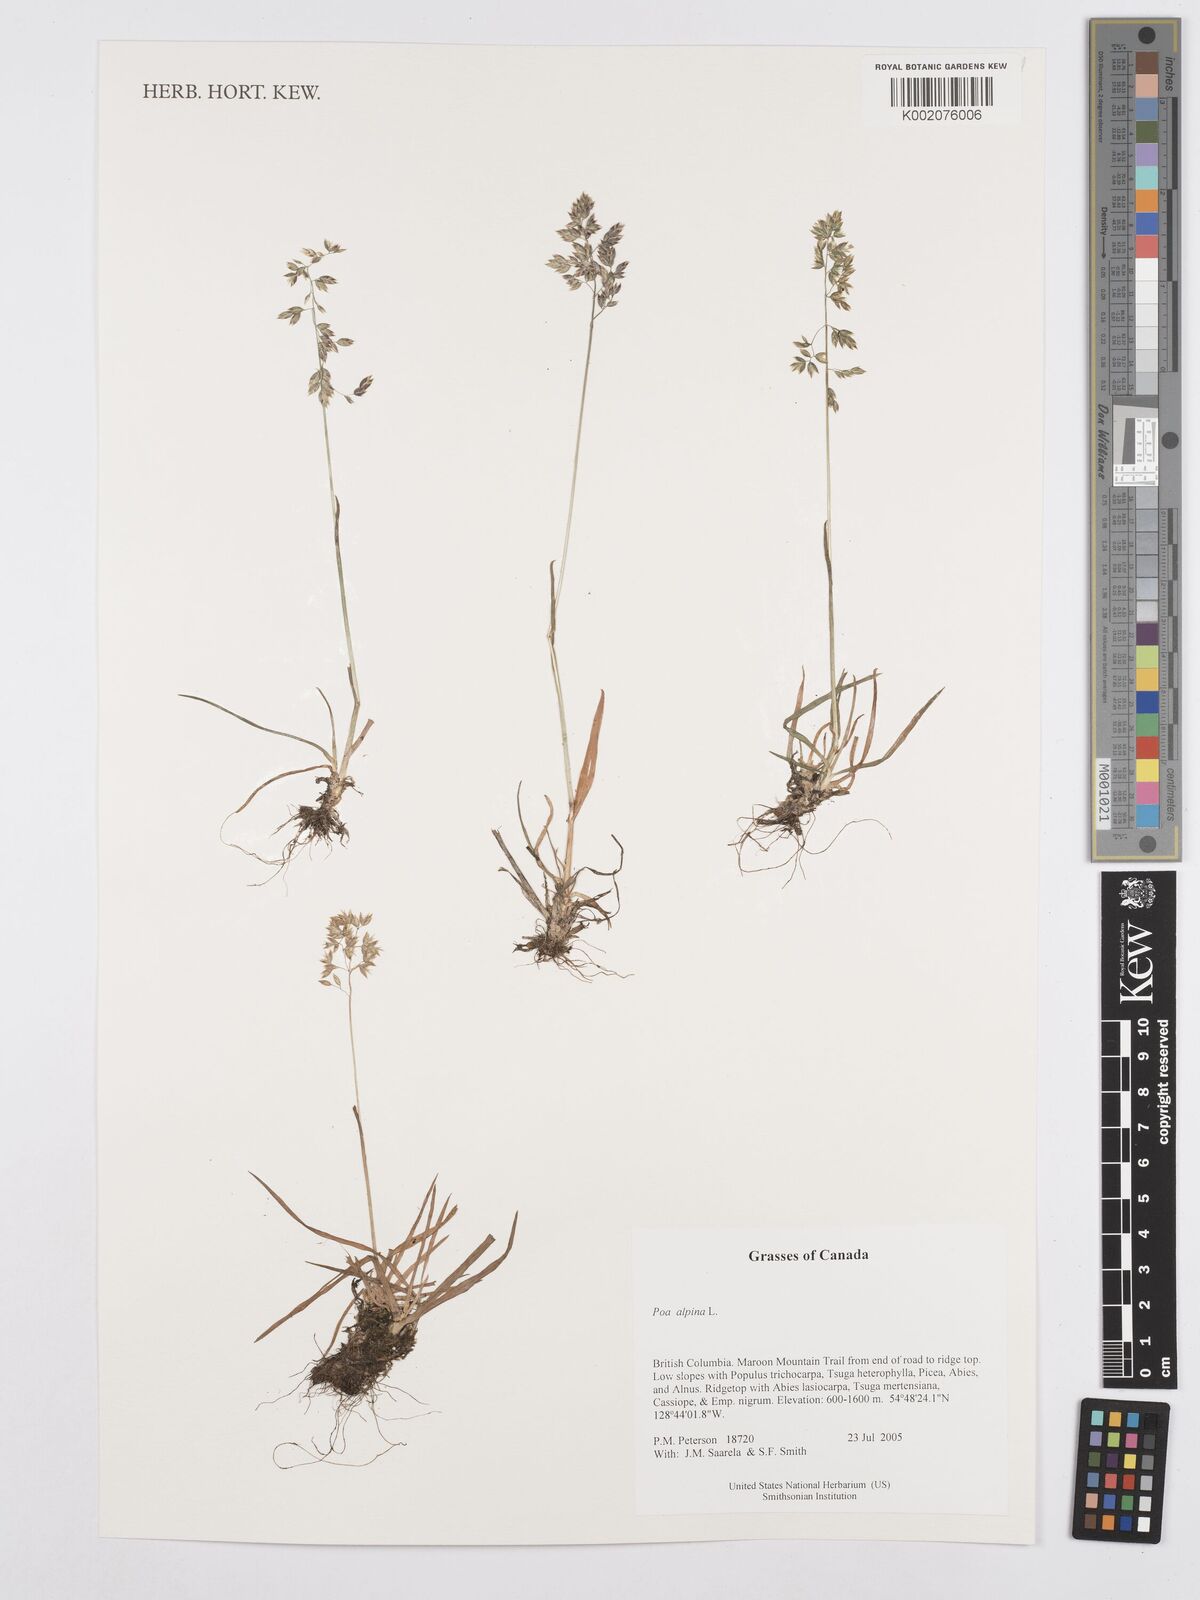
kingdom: Plantae
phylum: Tracheophyta
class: Liliopsida
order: Poales
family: Poaceae
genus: Poa
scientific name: Poa alpina
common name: Alpine bluegrass
